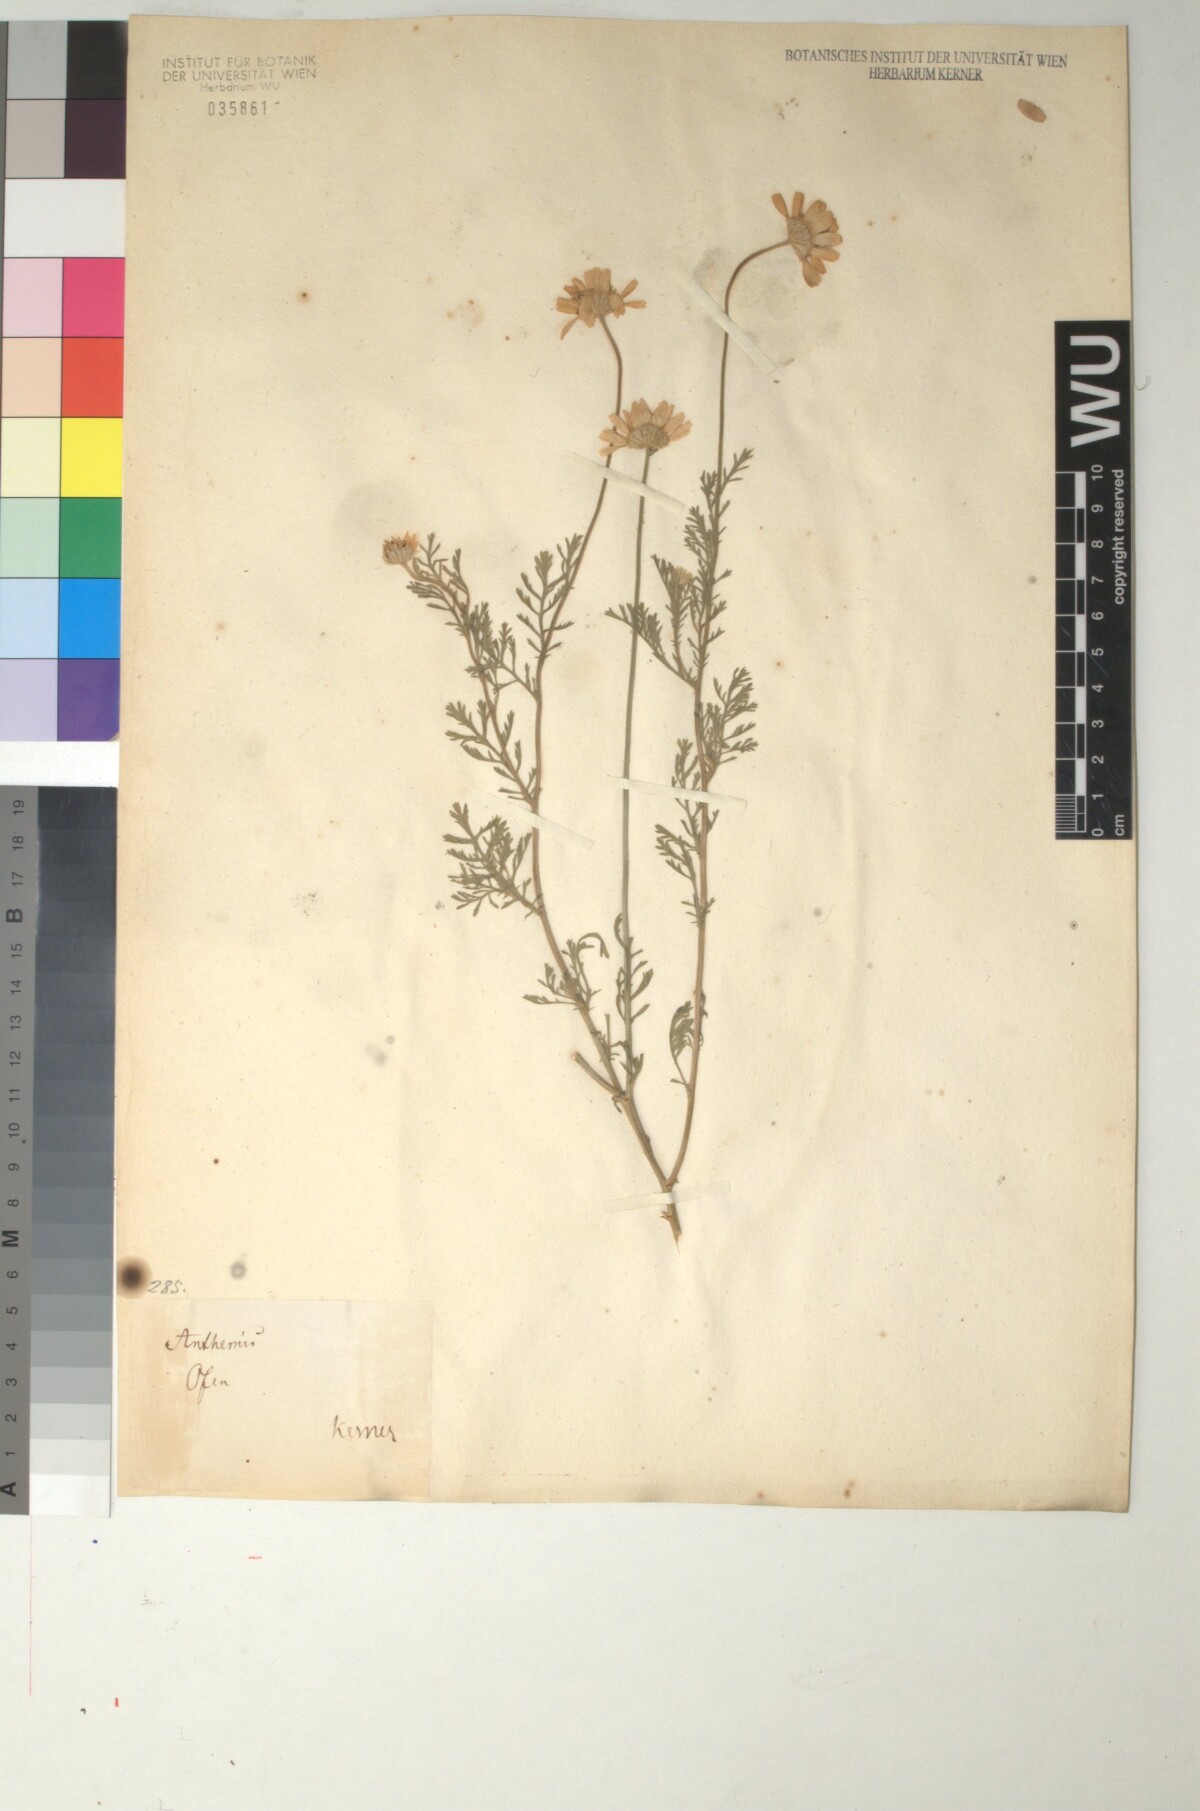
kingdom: Plantae
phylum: Tracheophyta
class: Magnoliopsida
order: Asterales
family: Asteraceae
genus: Anthemis
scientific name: Anthemis arvensis
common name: Corn chamomile
